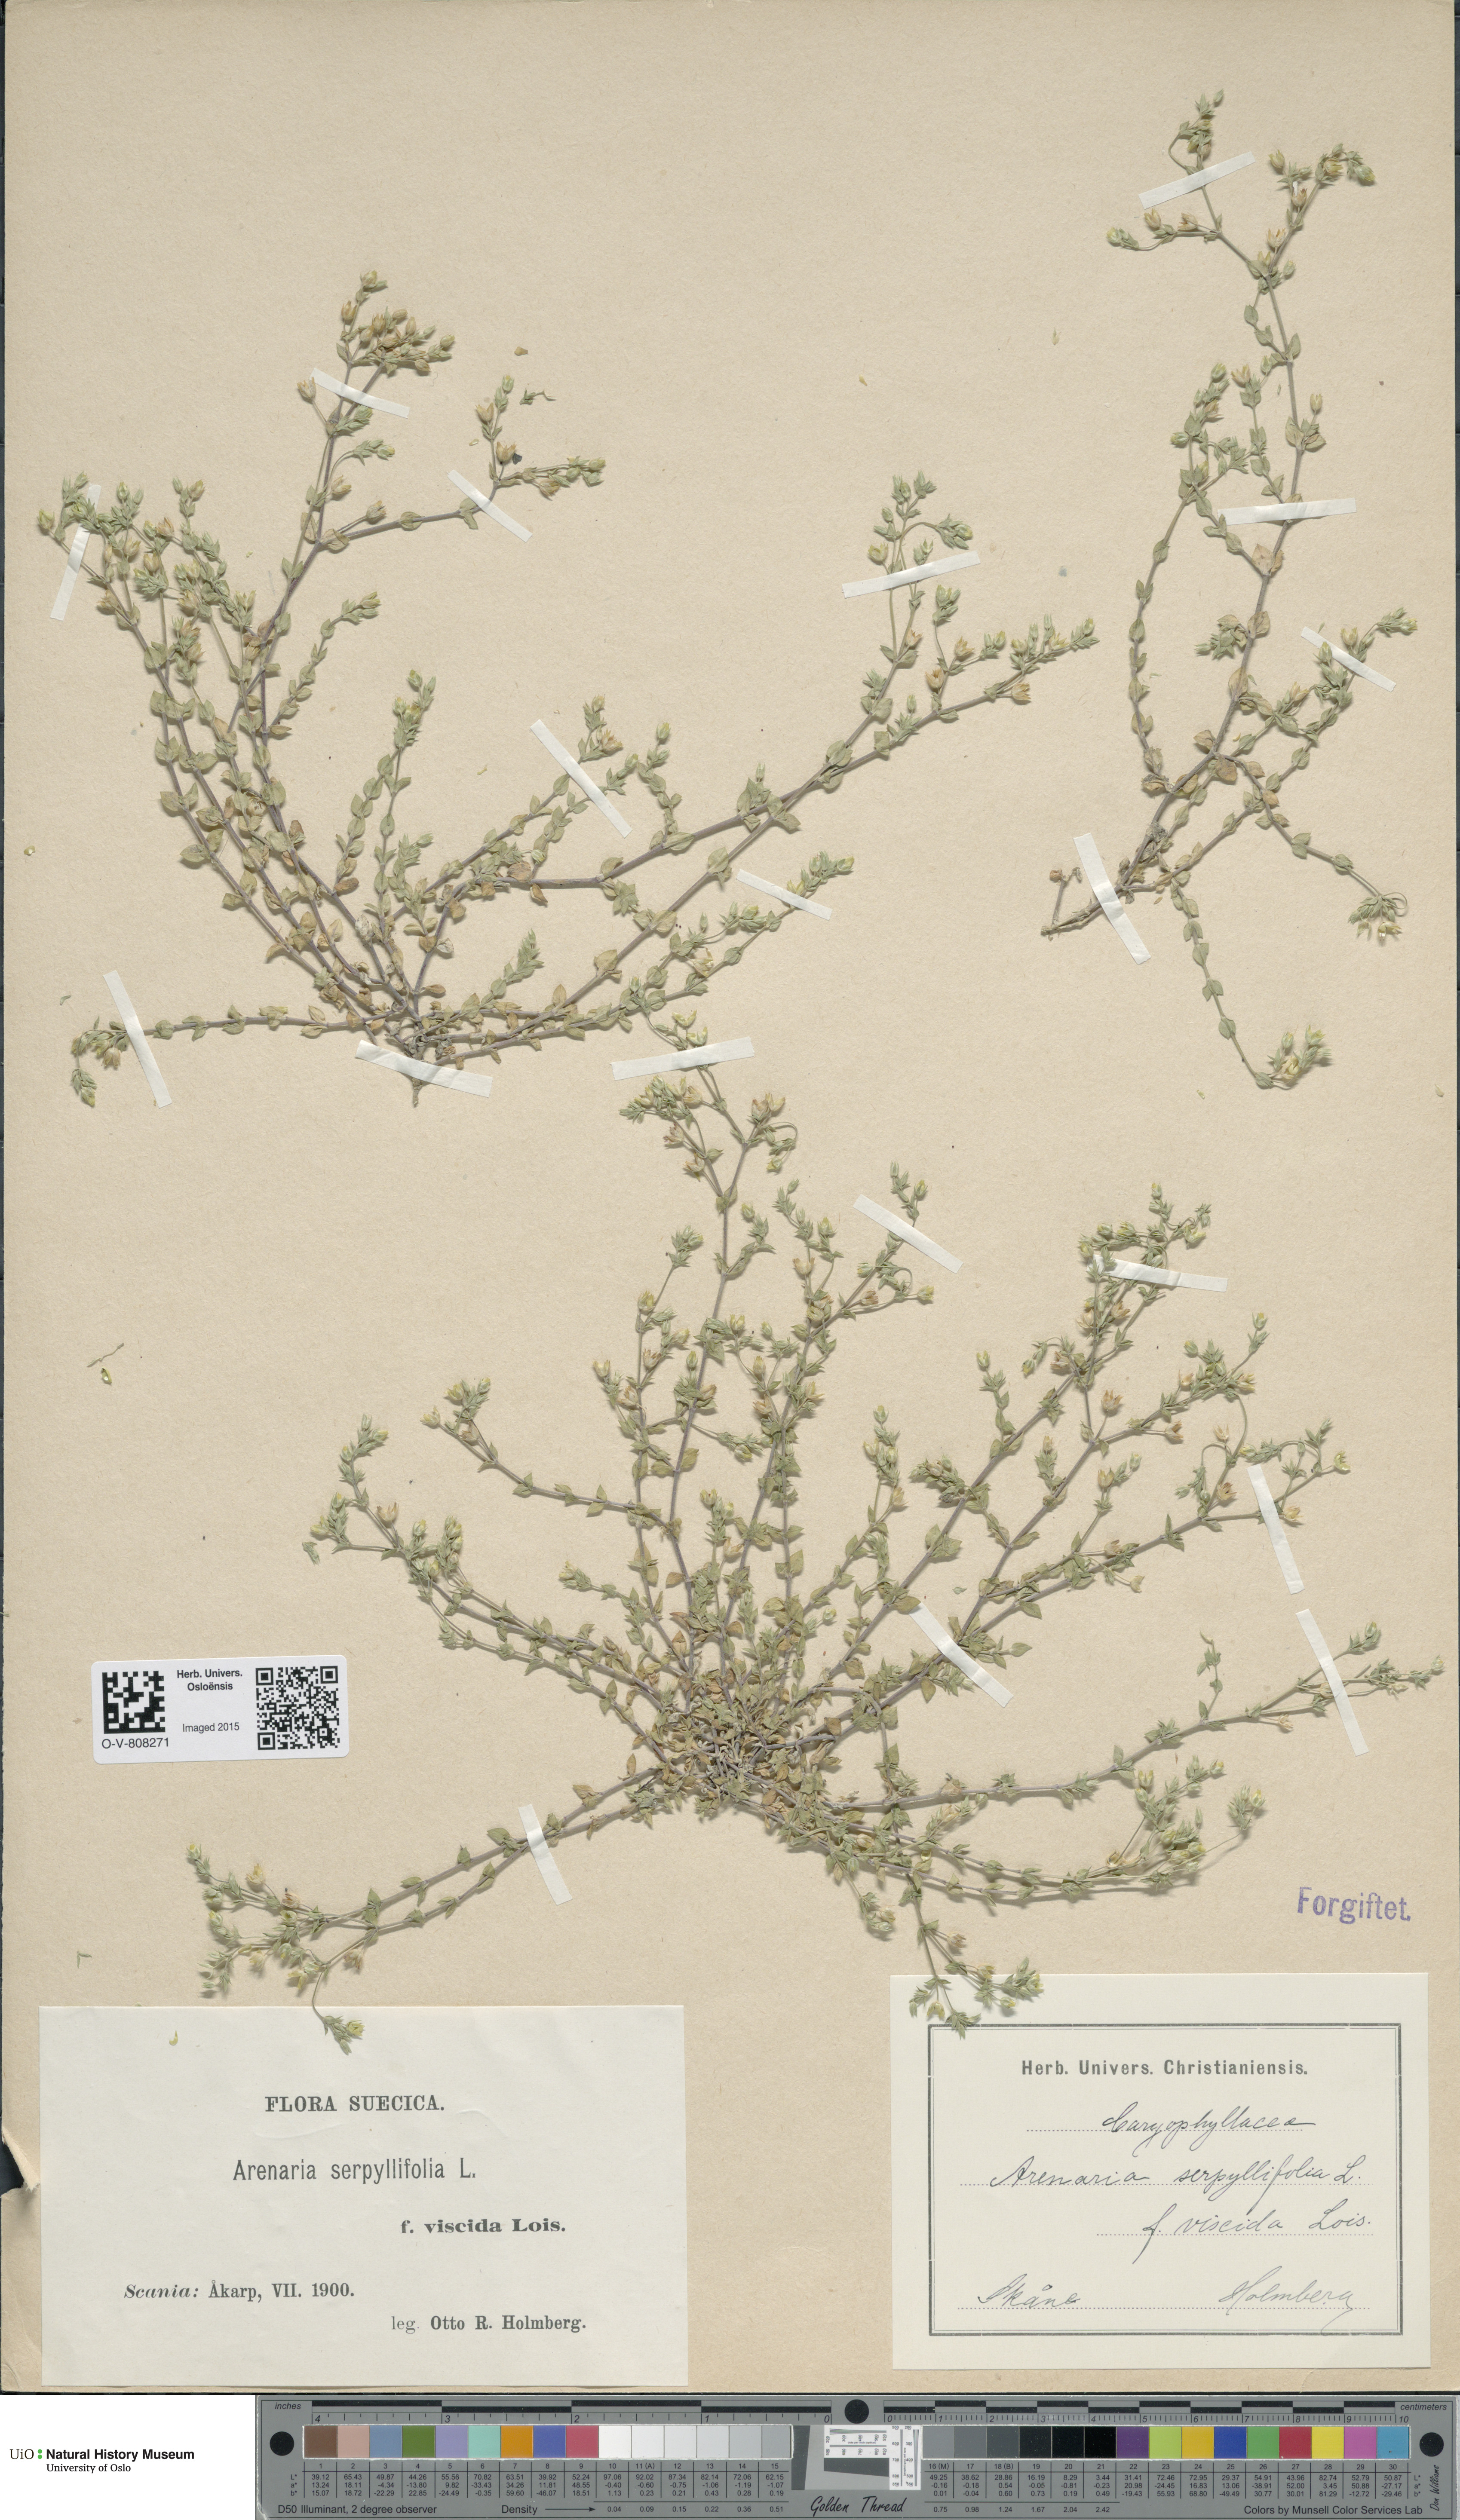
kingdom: Plantae
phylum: Tracheophyta
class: Magnoliopsida
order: Caryophyllales
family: Caryophyllaceae
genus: Arenaria
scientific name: Arenaria serpyllifolia
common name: Thyme-leaved sandwort
